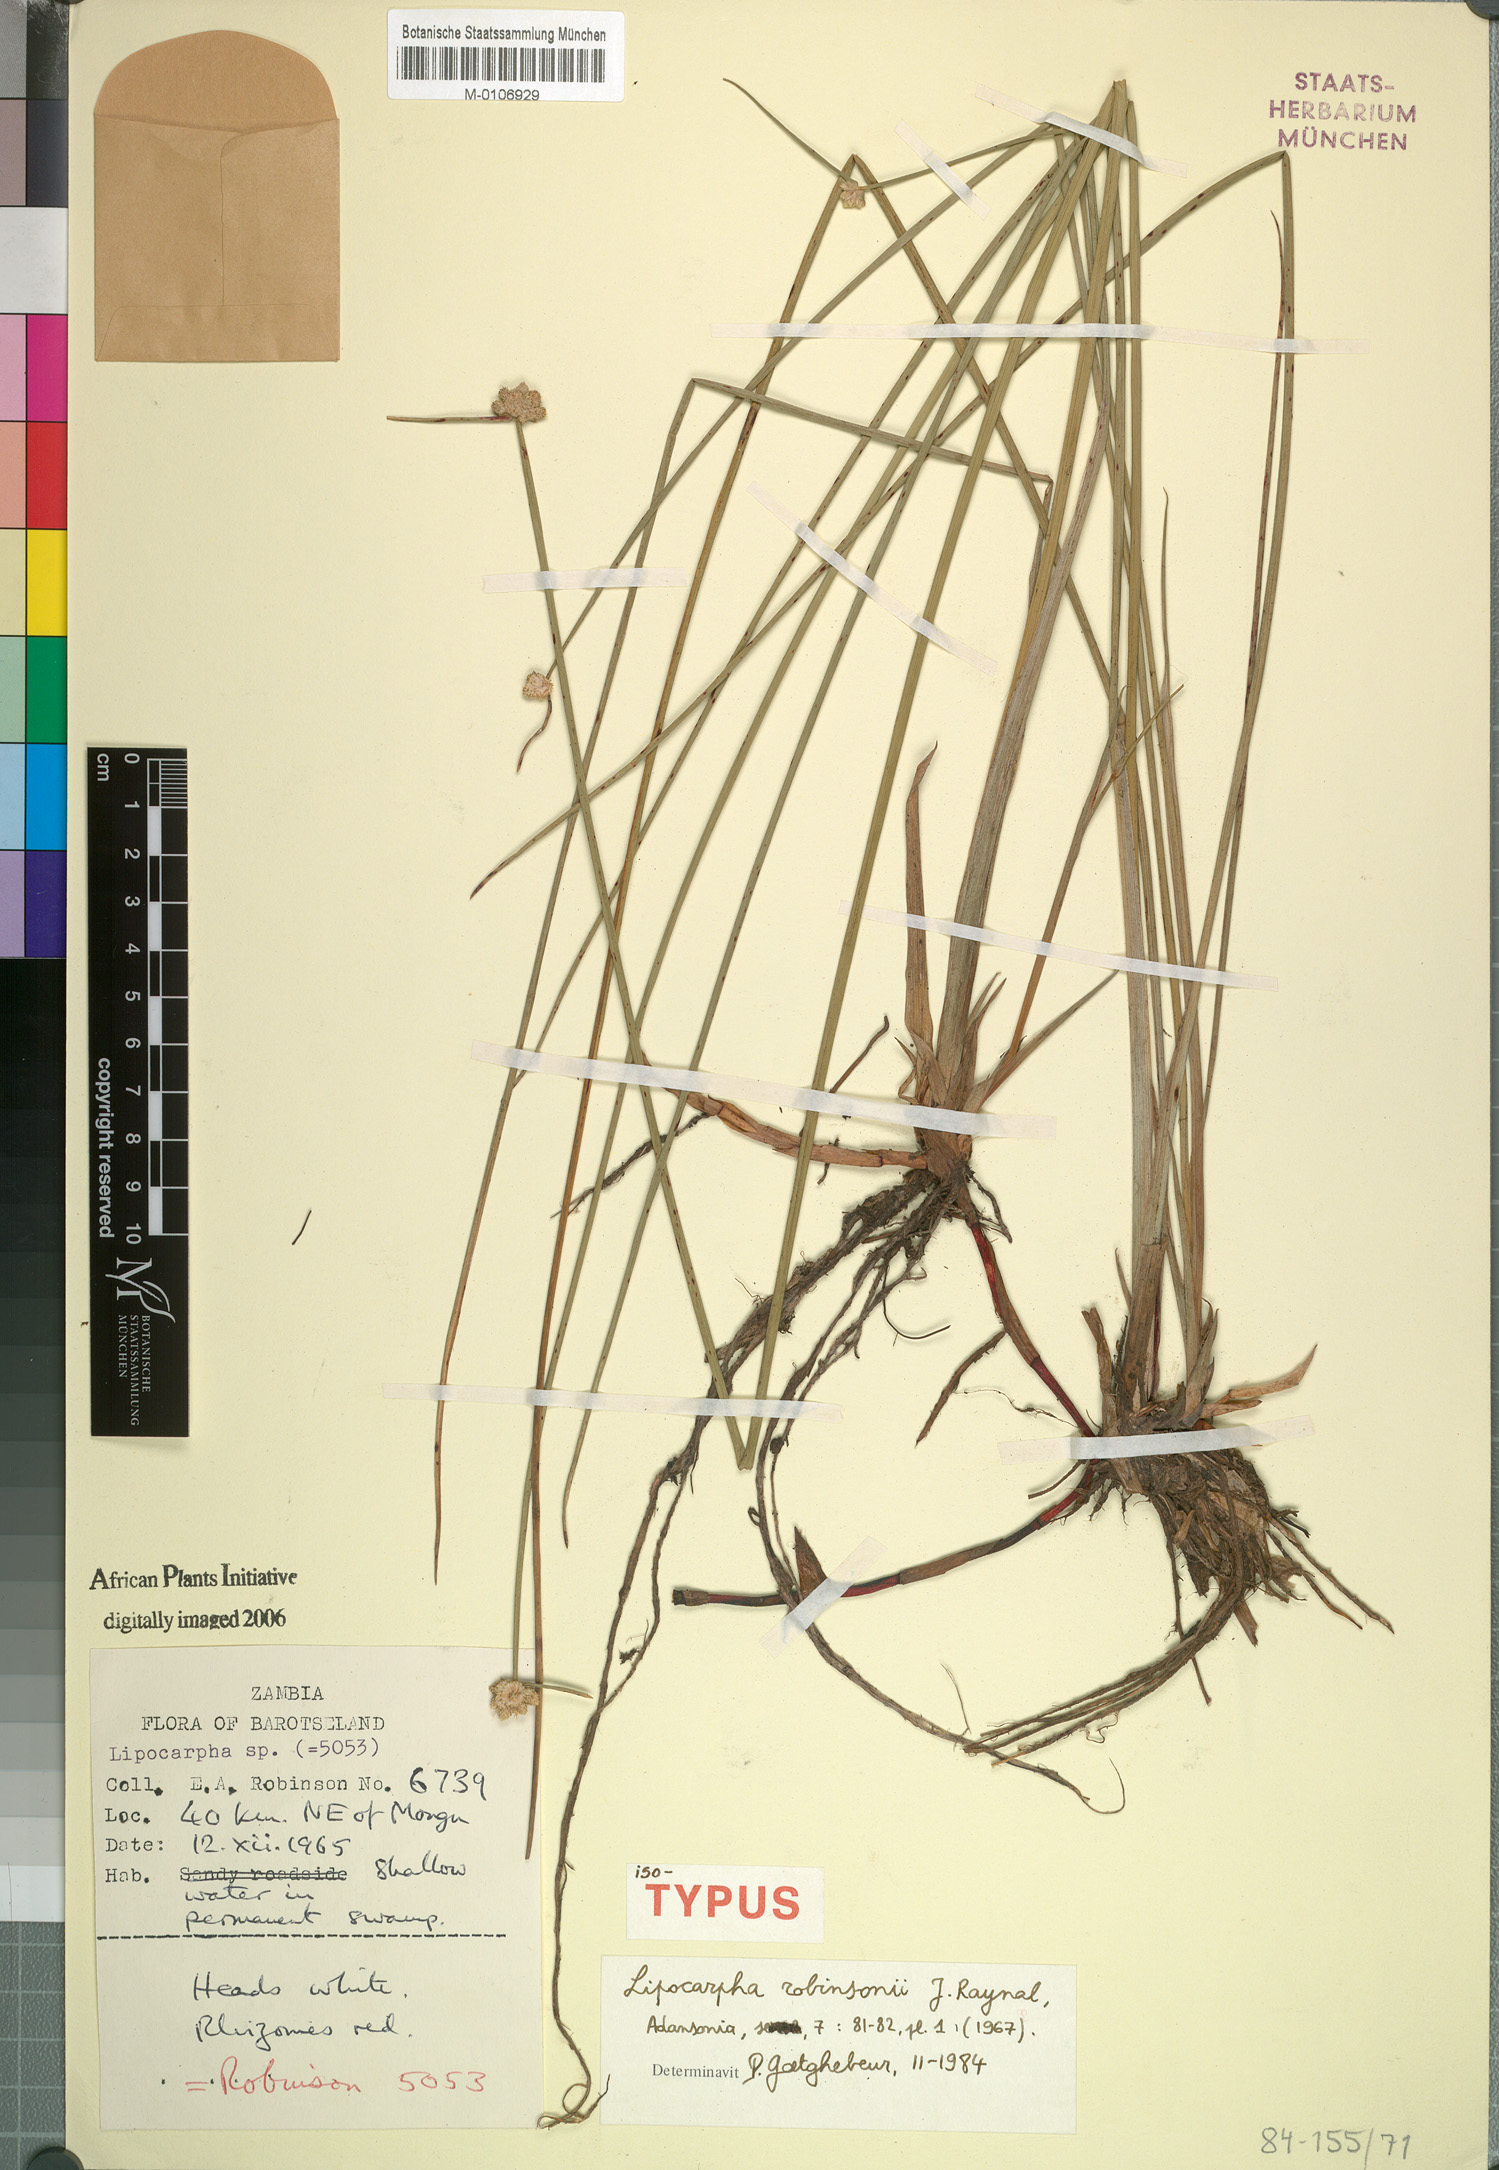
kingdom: Plantae
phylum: Tracheophyta
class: Liliopsida
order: Poales
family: Cyperaceae
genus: Cyperus
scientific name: Cyperus liporobinsonii
